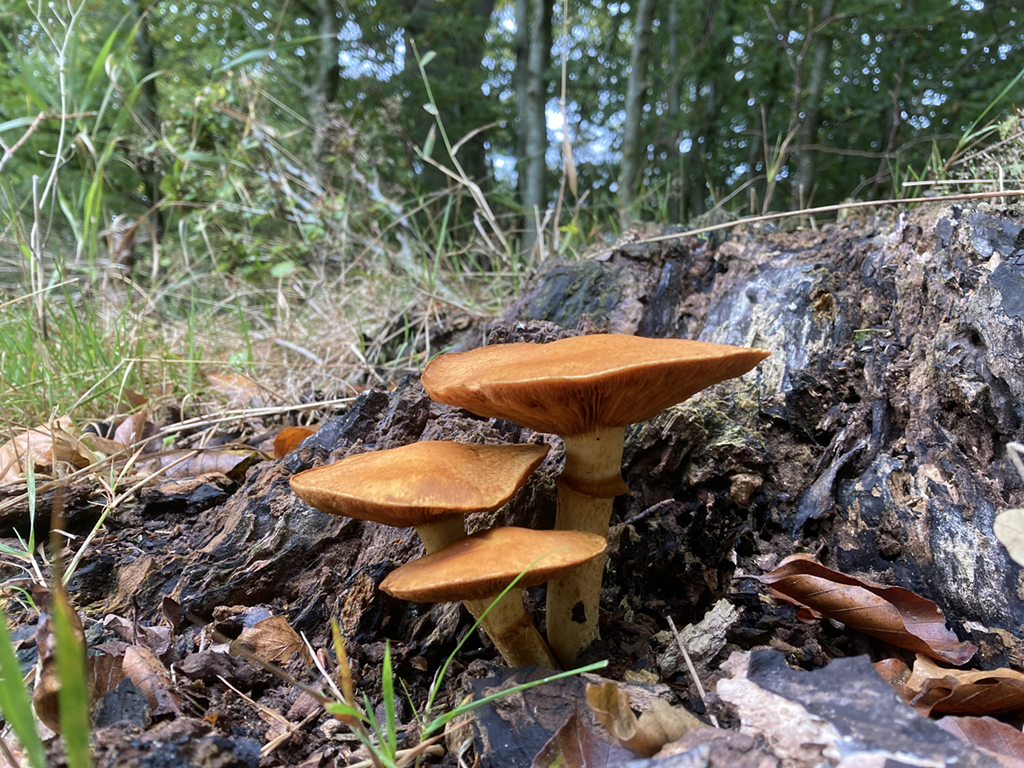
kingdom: Fungi
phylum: Basidiomycota
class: Agaricomycetes
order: Agaricales
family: Hymenogastraceae
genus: Gymnopilus
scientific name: Gymnopilus spectabilis
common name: fibret flammehat
